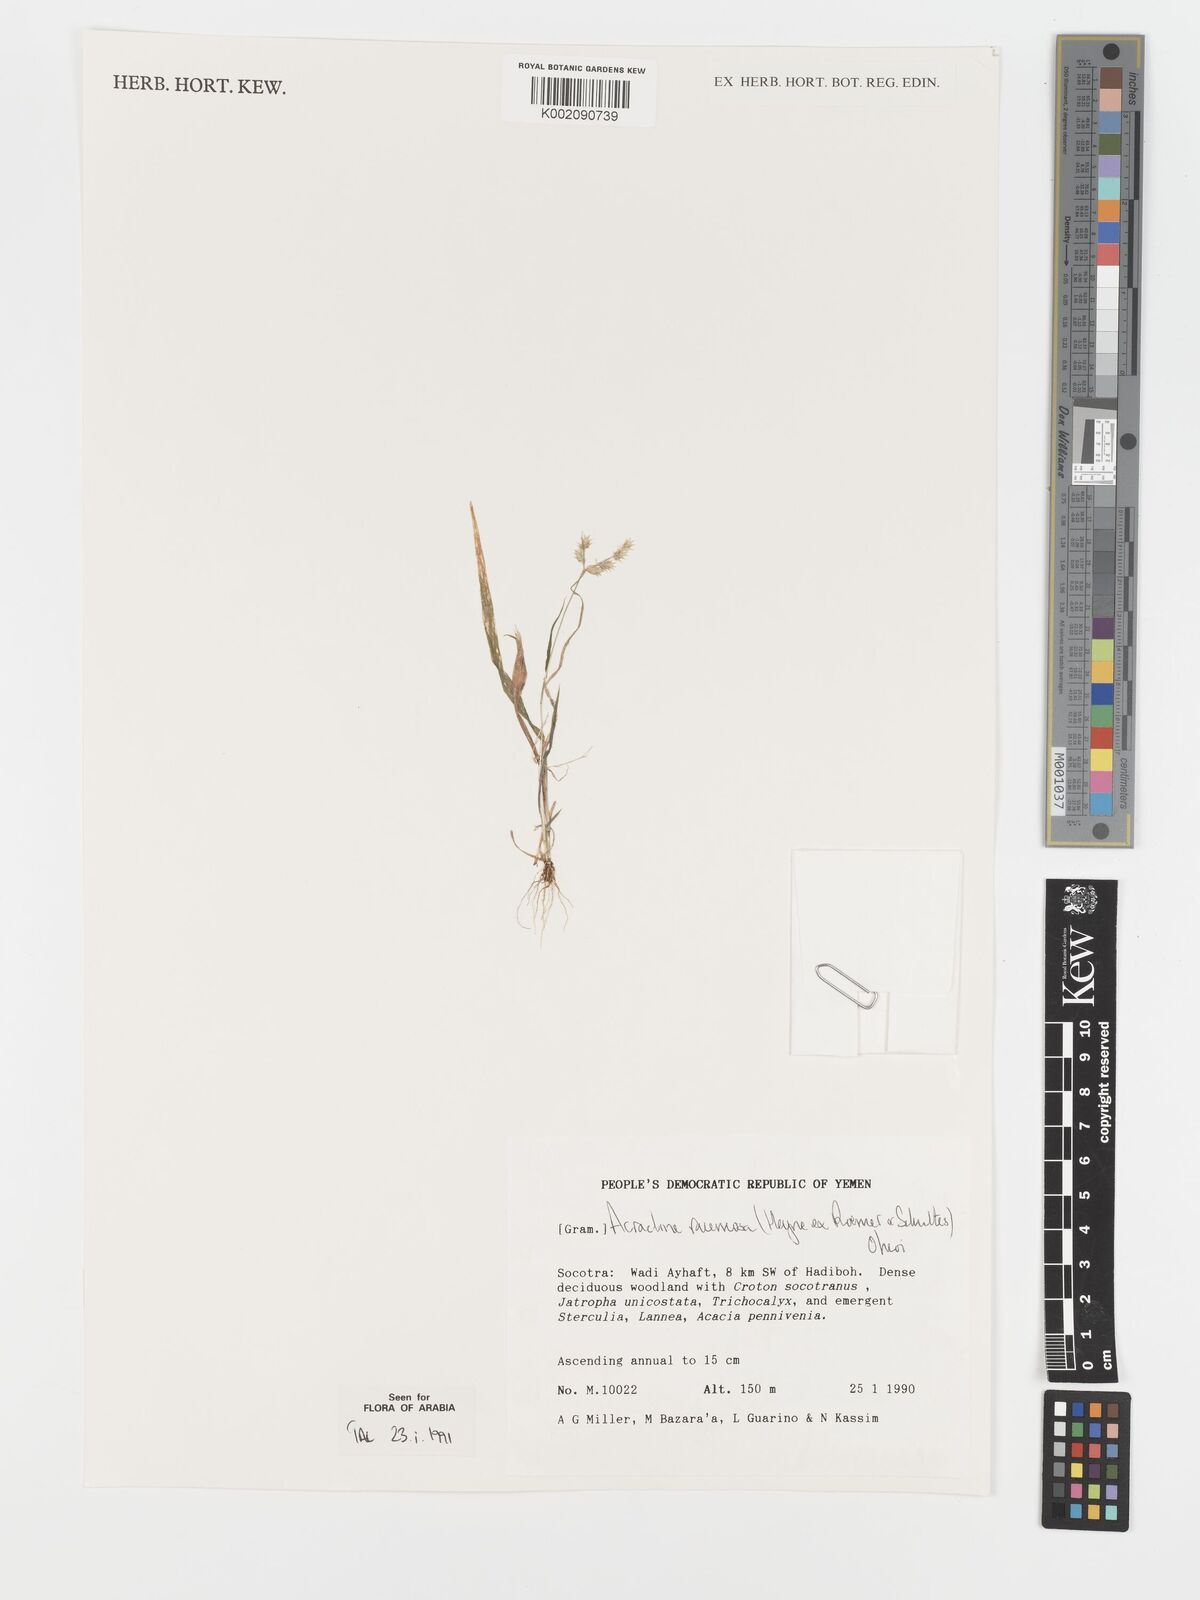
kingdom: Plantae
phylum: Tracheophyta
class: Liliopsida
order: Poales
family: Poaceae
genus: Acrachne
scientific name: Acrachne racemosa
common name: Goosegrass
